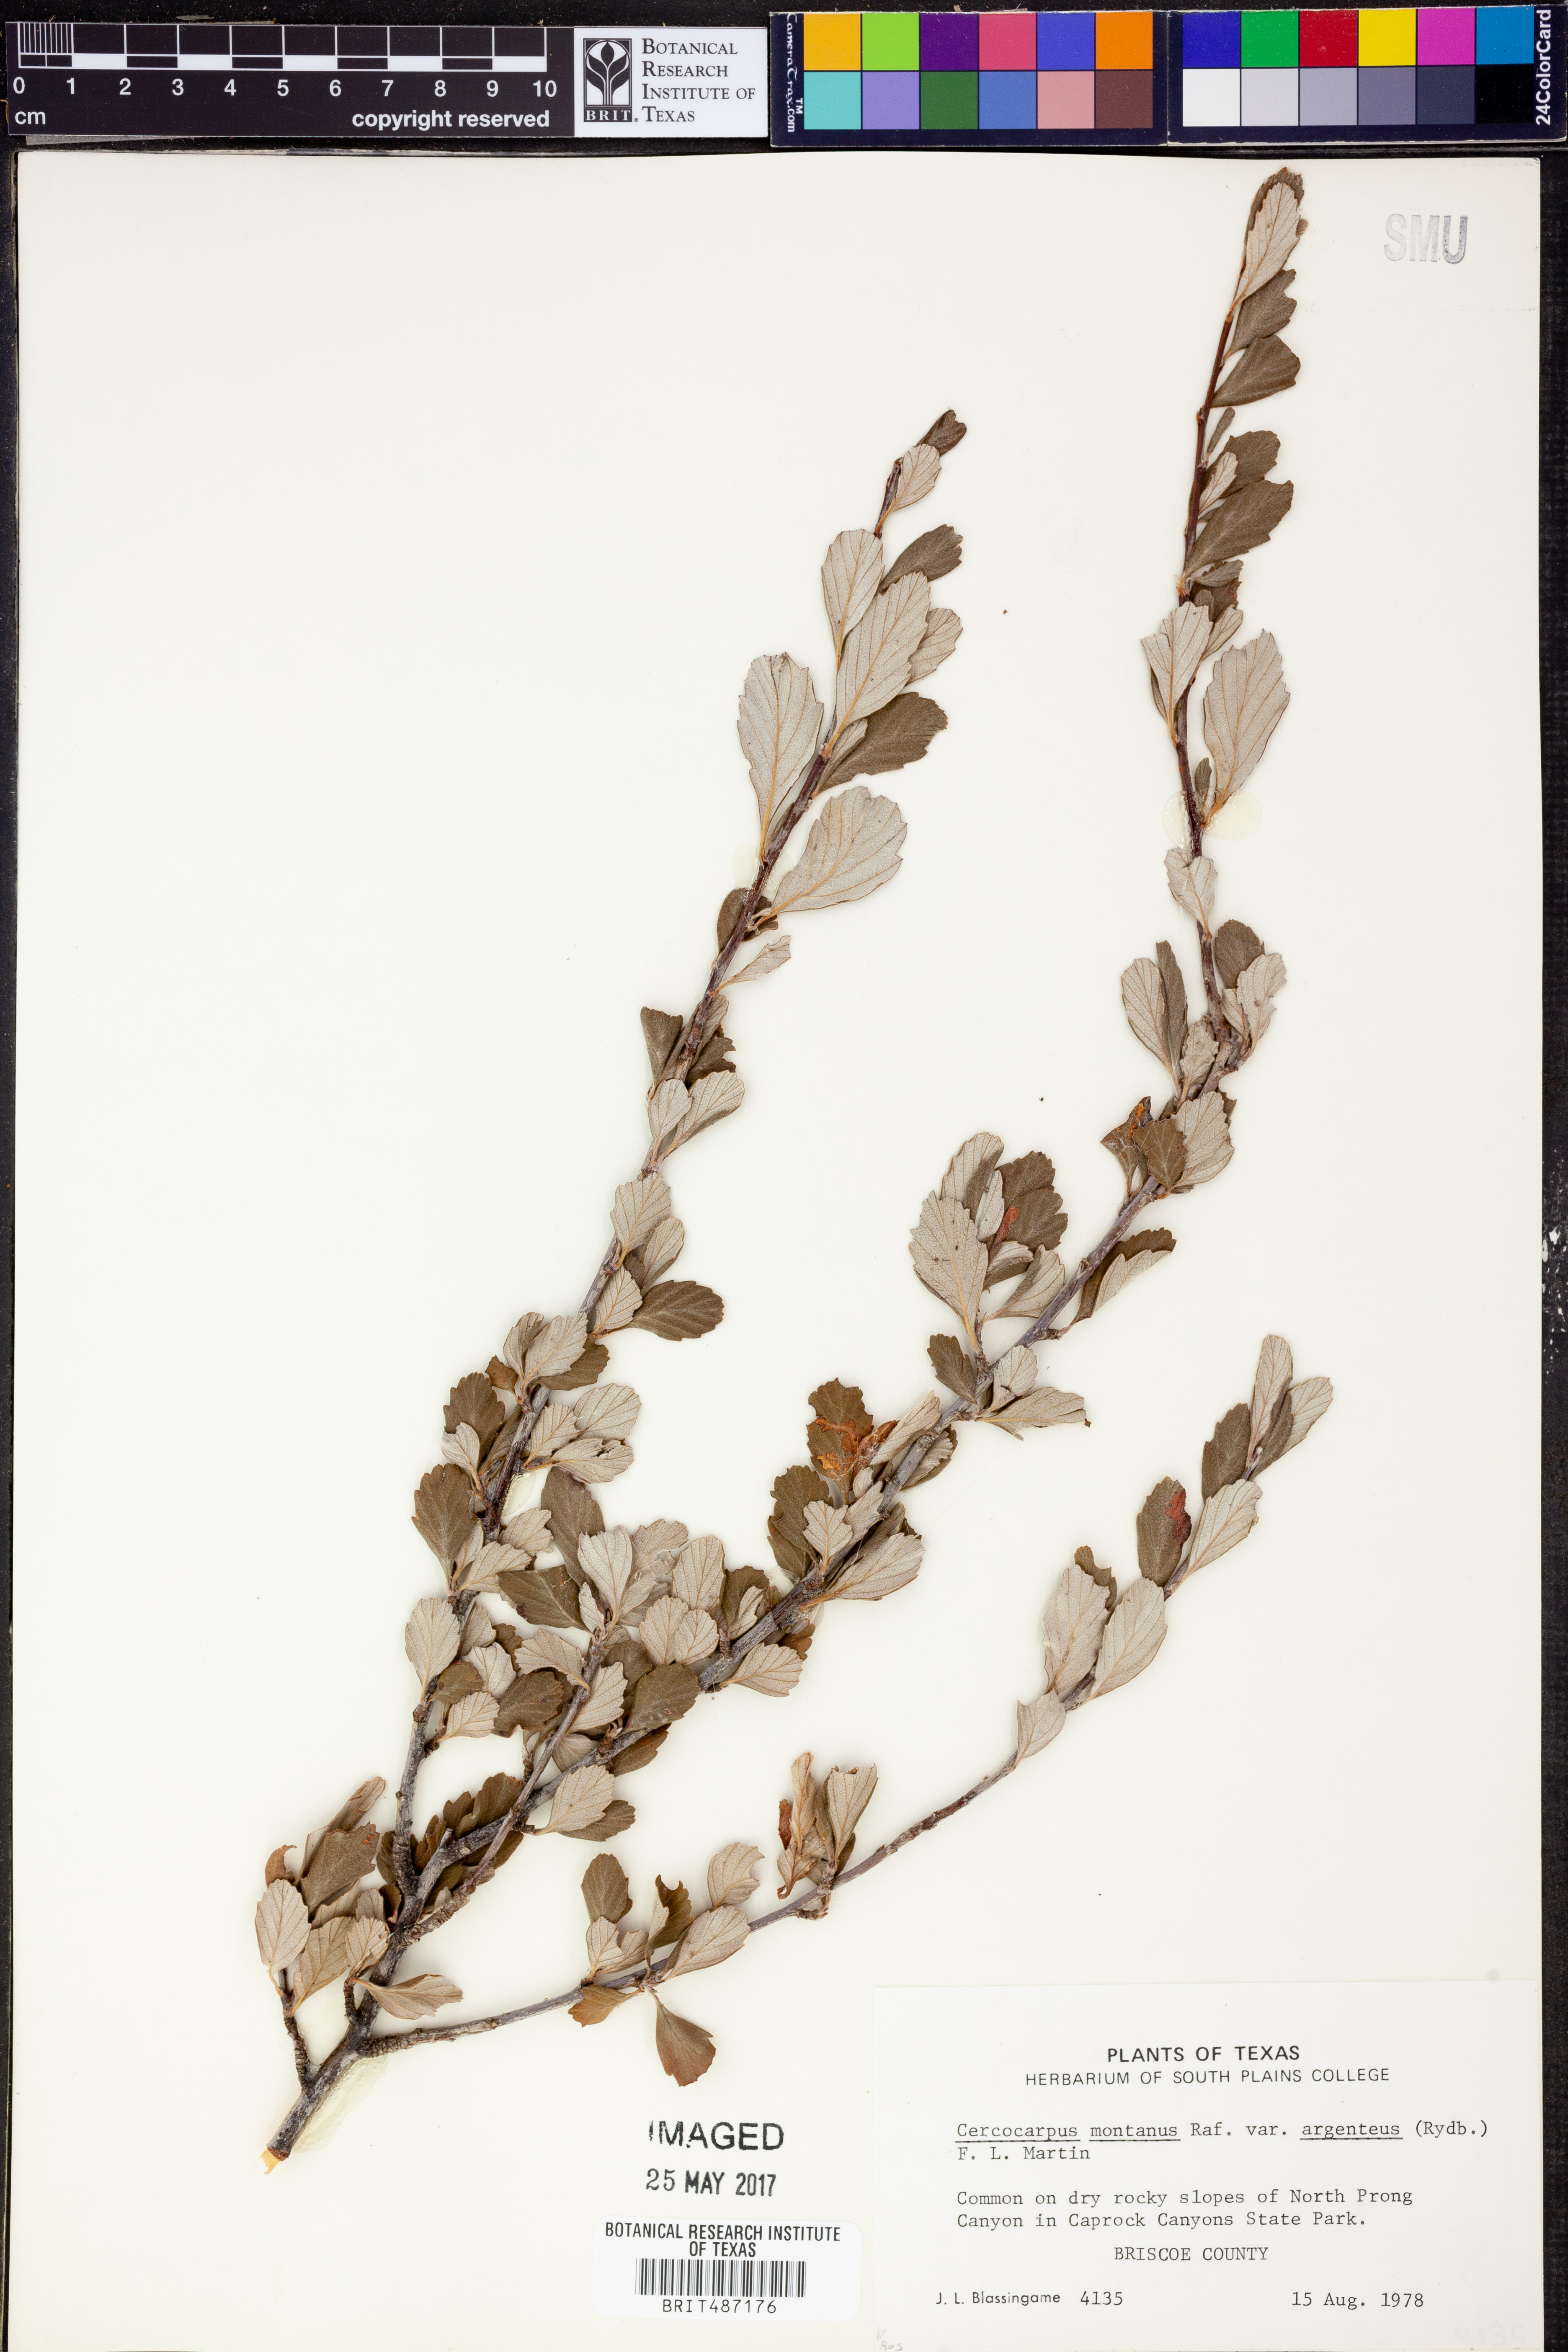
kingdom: Plantae
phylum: Tracheophyta
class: Magnoliopsida
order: Rosales
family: Rosaceae
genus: Cercocarpus
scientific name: Cercocarpus montanus
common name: Alder-leaf cercocarpus
